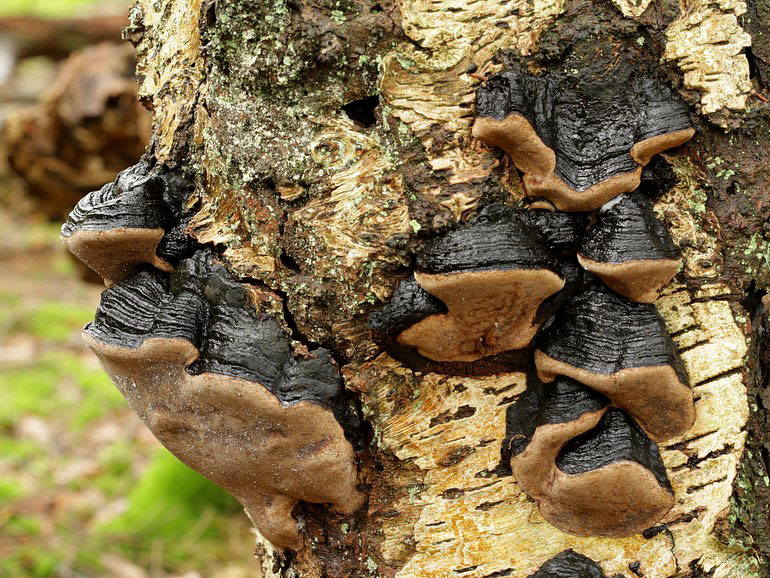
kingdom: Fungi
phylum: Basidiomycota
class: Agaricomycetes
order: Hymenochaetales
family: Hymenochaetaceae
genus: Phellinus
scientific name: Phellinus lundellii
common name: birke-ildporesvamp
